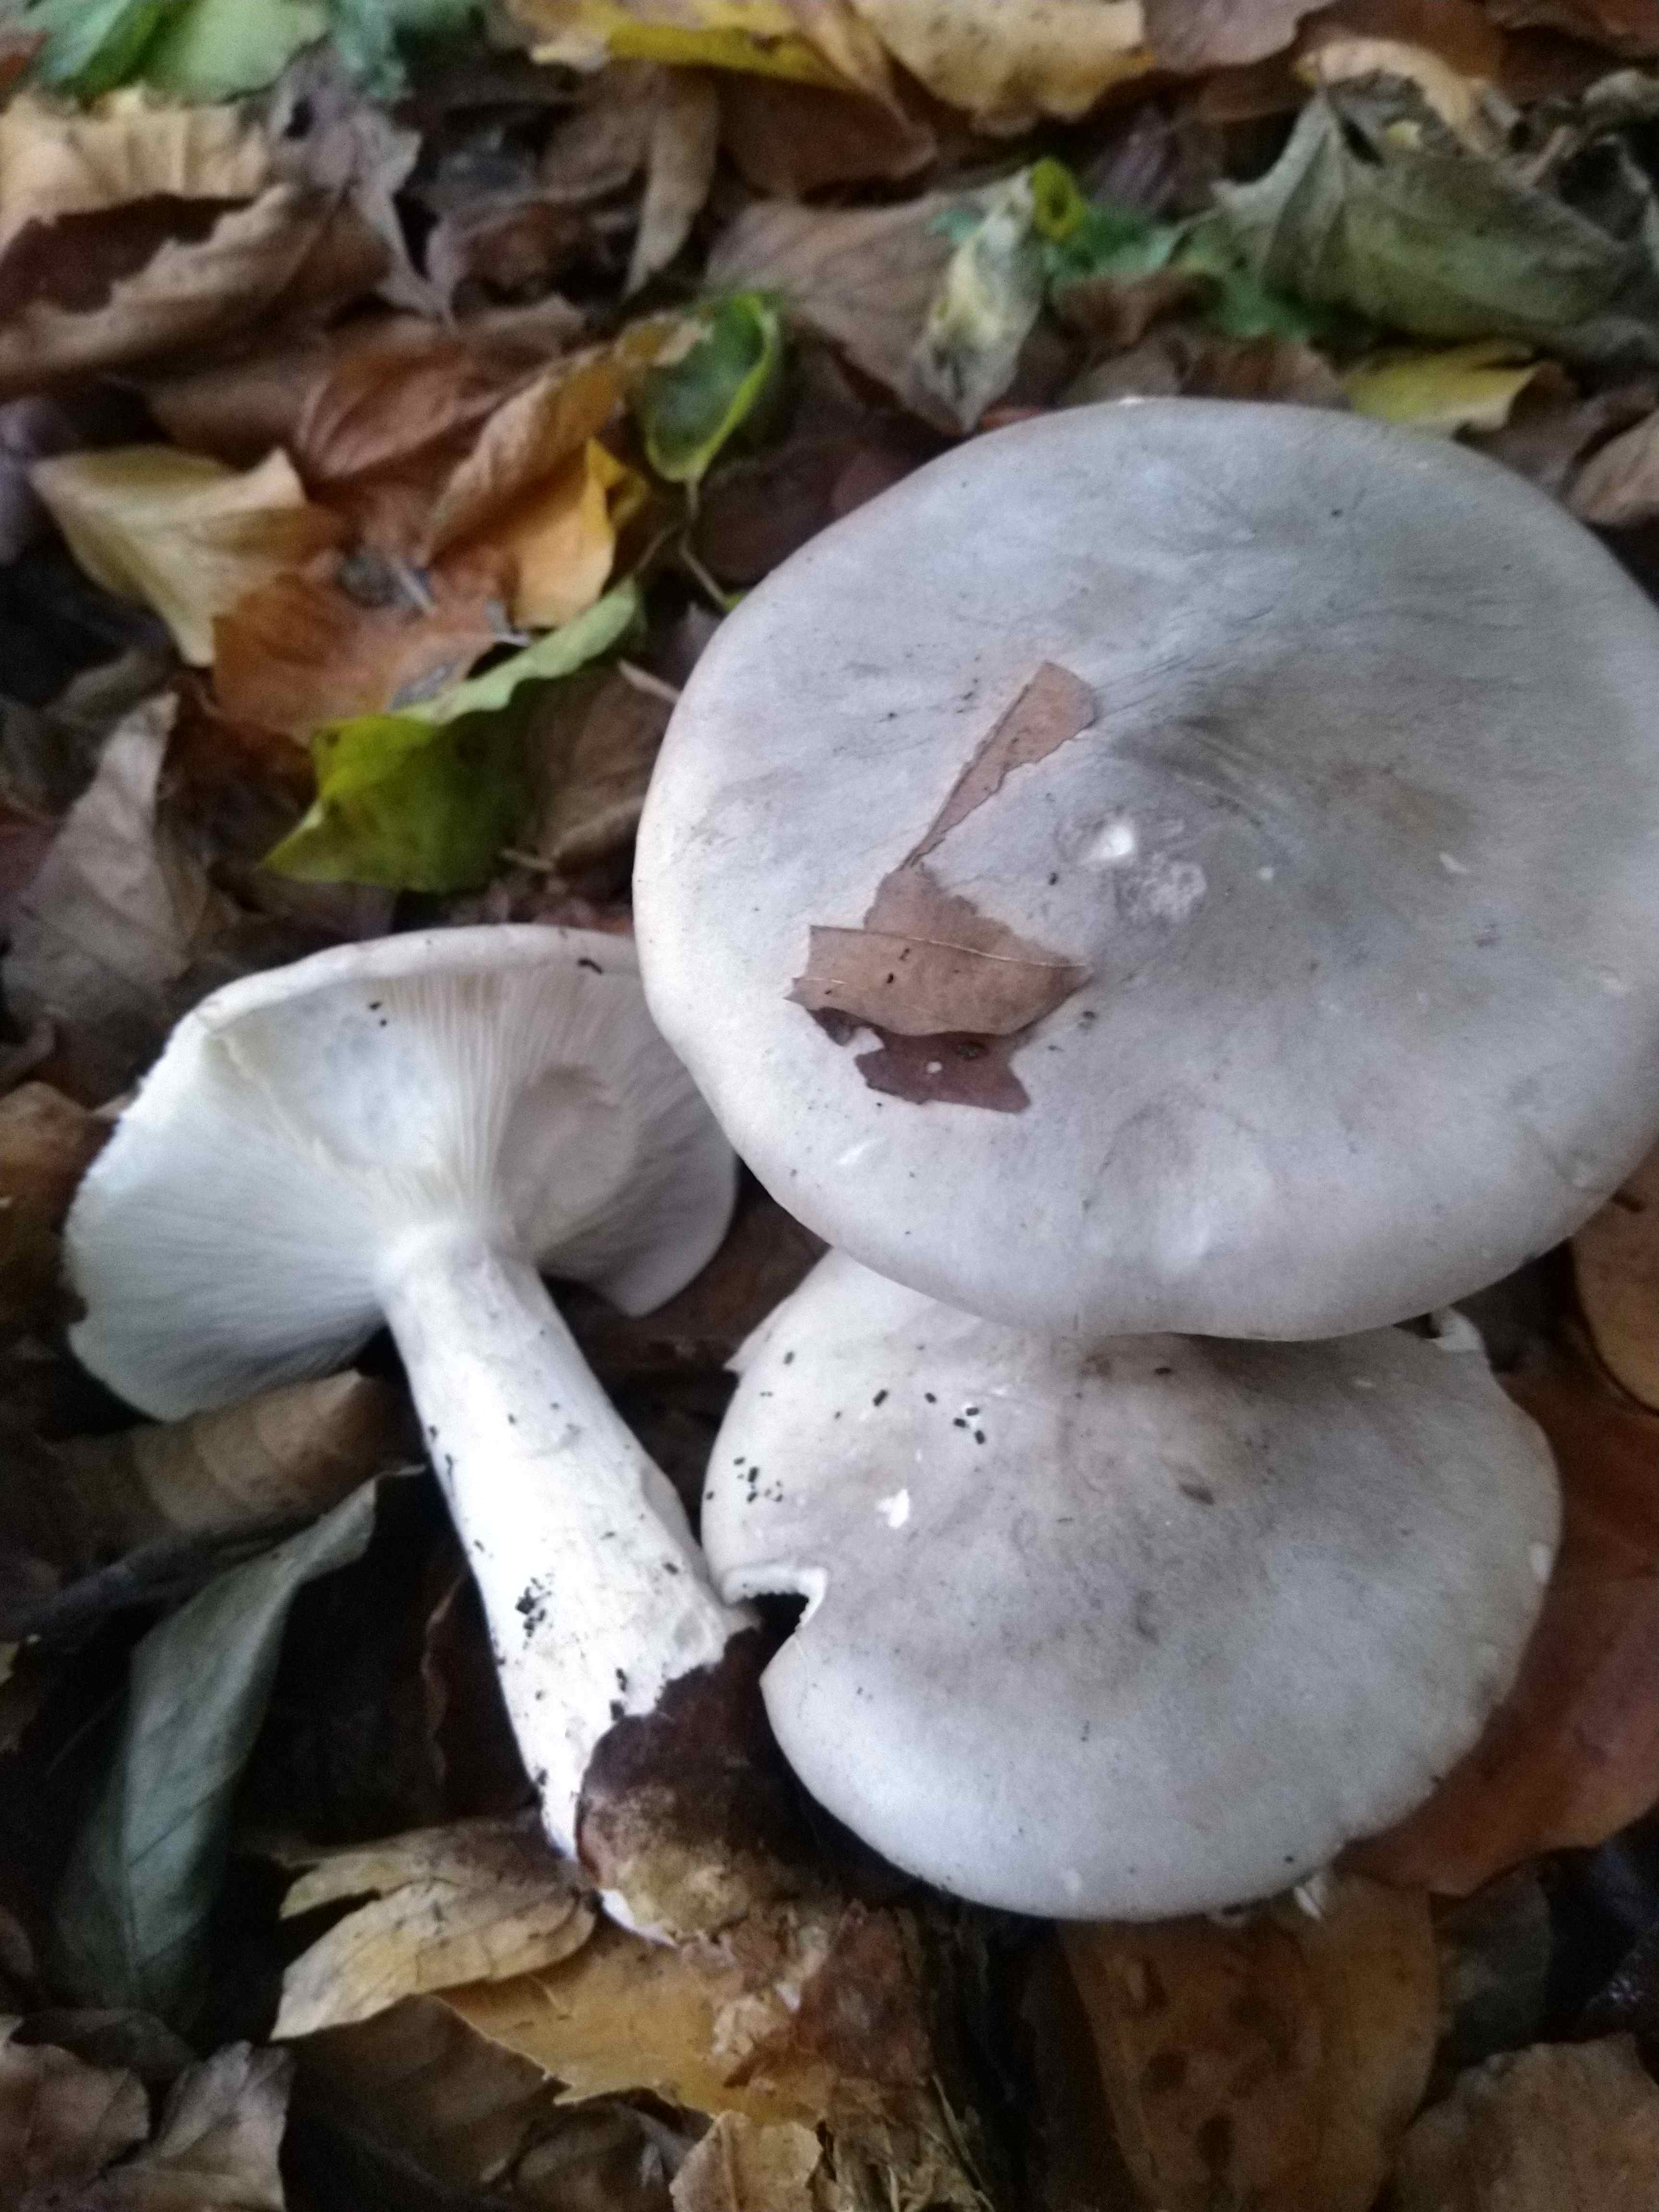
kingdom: Fungi
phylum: Basidiomycota
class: Agaricomycetes
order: Agaricales
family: Tricholomataceae
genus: Clitocybe
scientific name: Clitocybe nebularis
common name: tåge-tragthat
